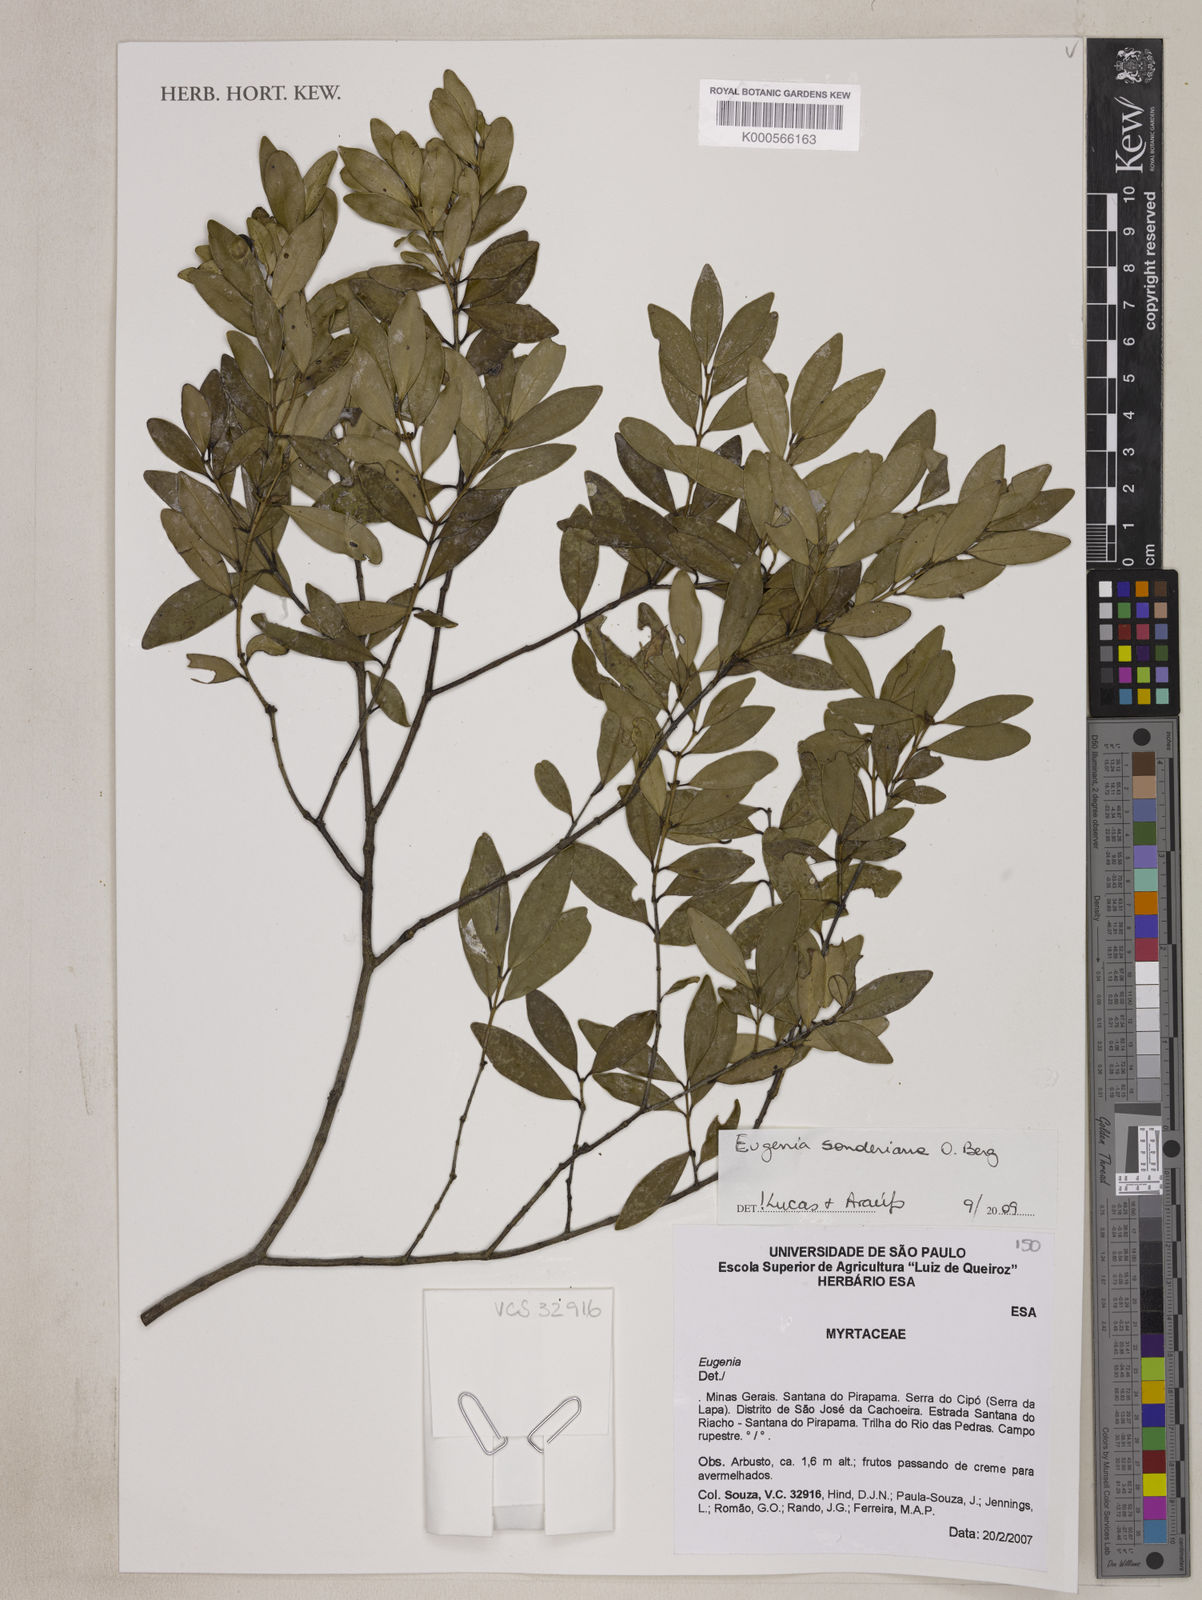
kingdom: Plantae
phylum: Tracheophyta
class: Magnoliopsida
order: Myrtales
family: Myrtaceae
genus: Eugenia
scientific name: Eugenia sonderiana
